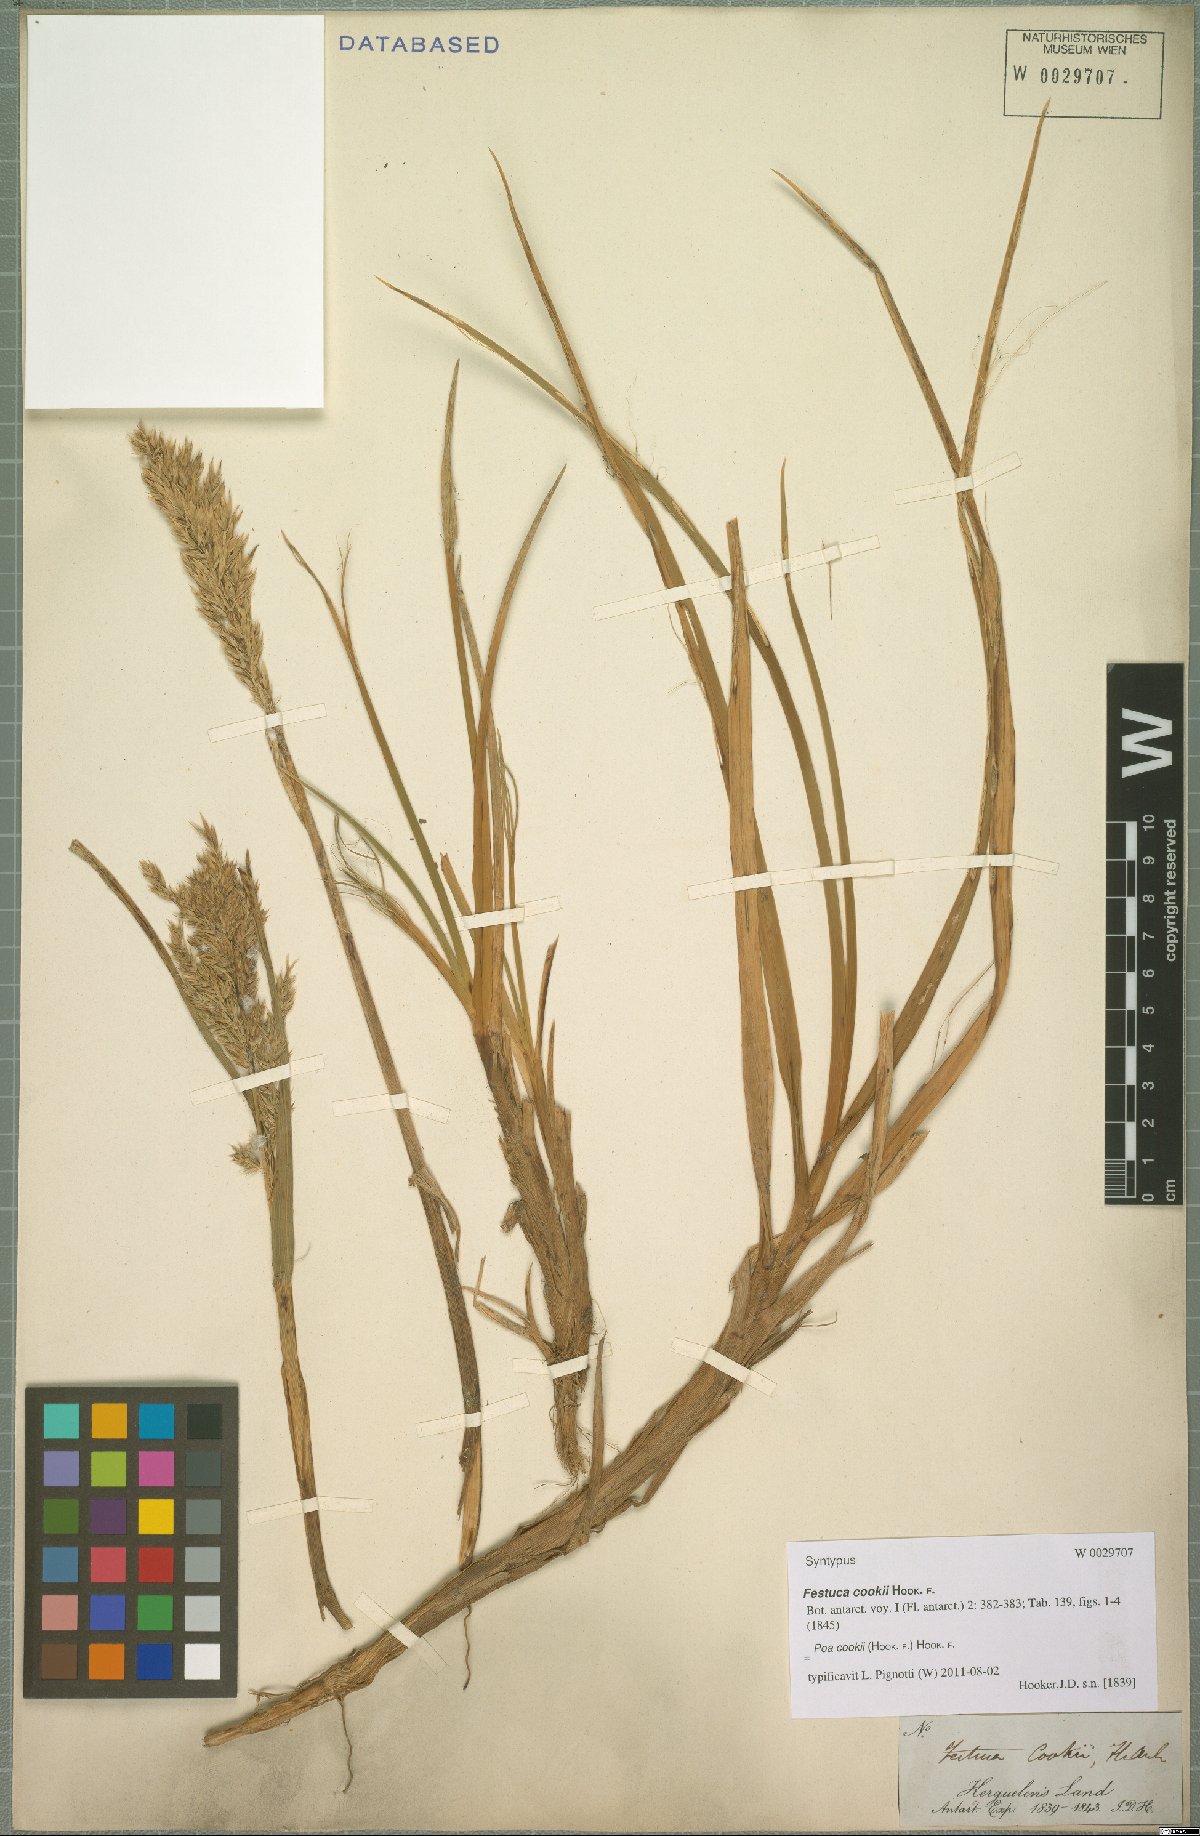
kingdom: Plantae
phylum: Tracheophyta
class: Liliopsida
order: Poales
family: Poaceae
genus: Poa
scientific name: Poa cookii
